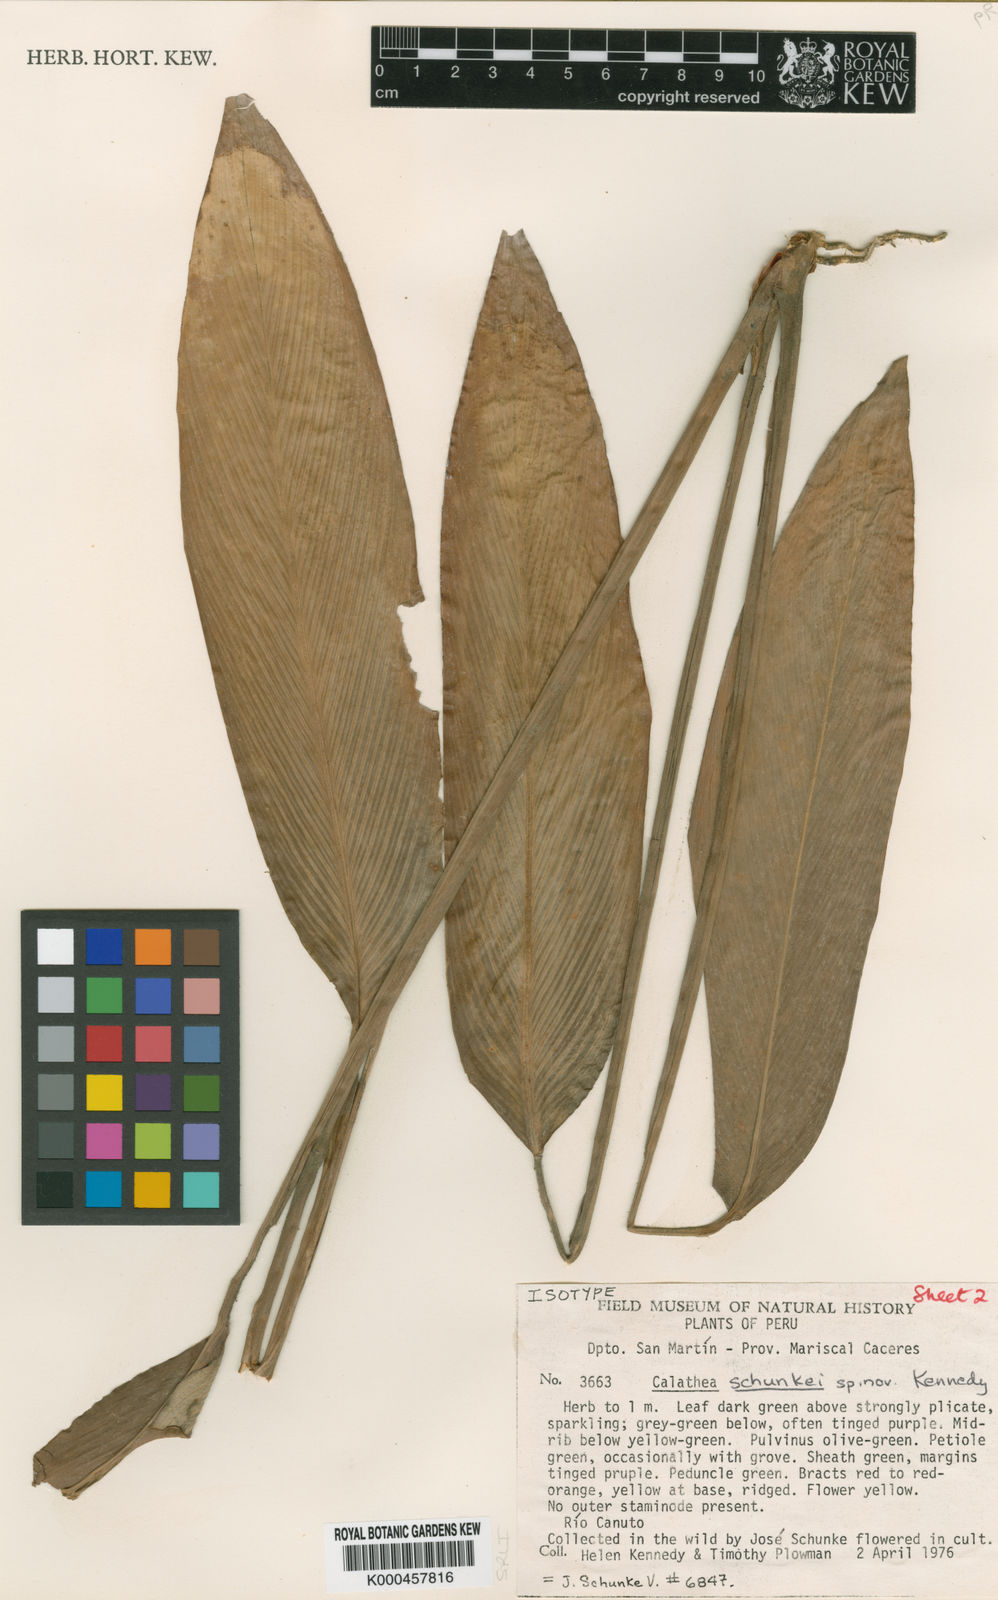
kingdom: Plantae
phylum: Tracheophyta
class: Liliopsida
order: Zingiberales
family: Marantaceae
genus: Goeppertia
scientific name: Goeppertia schunkei
